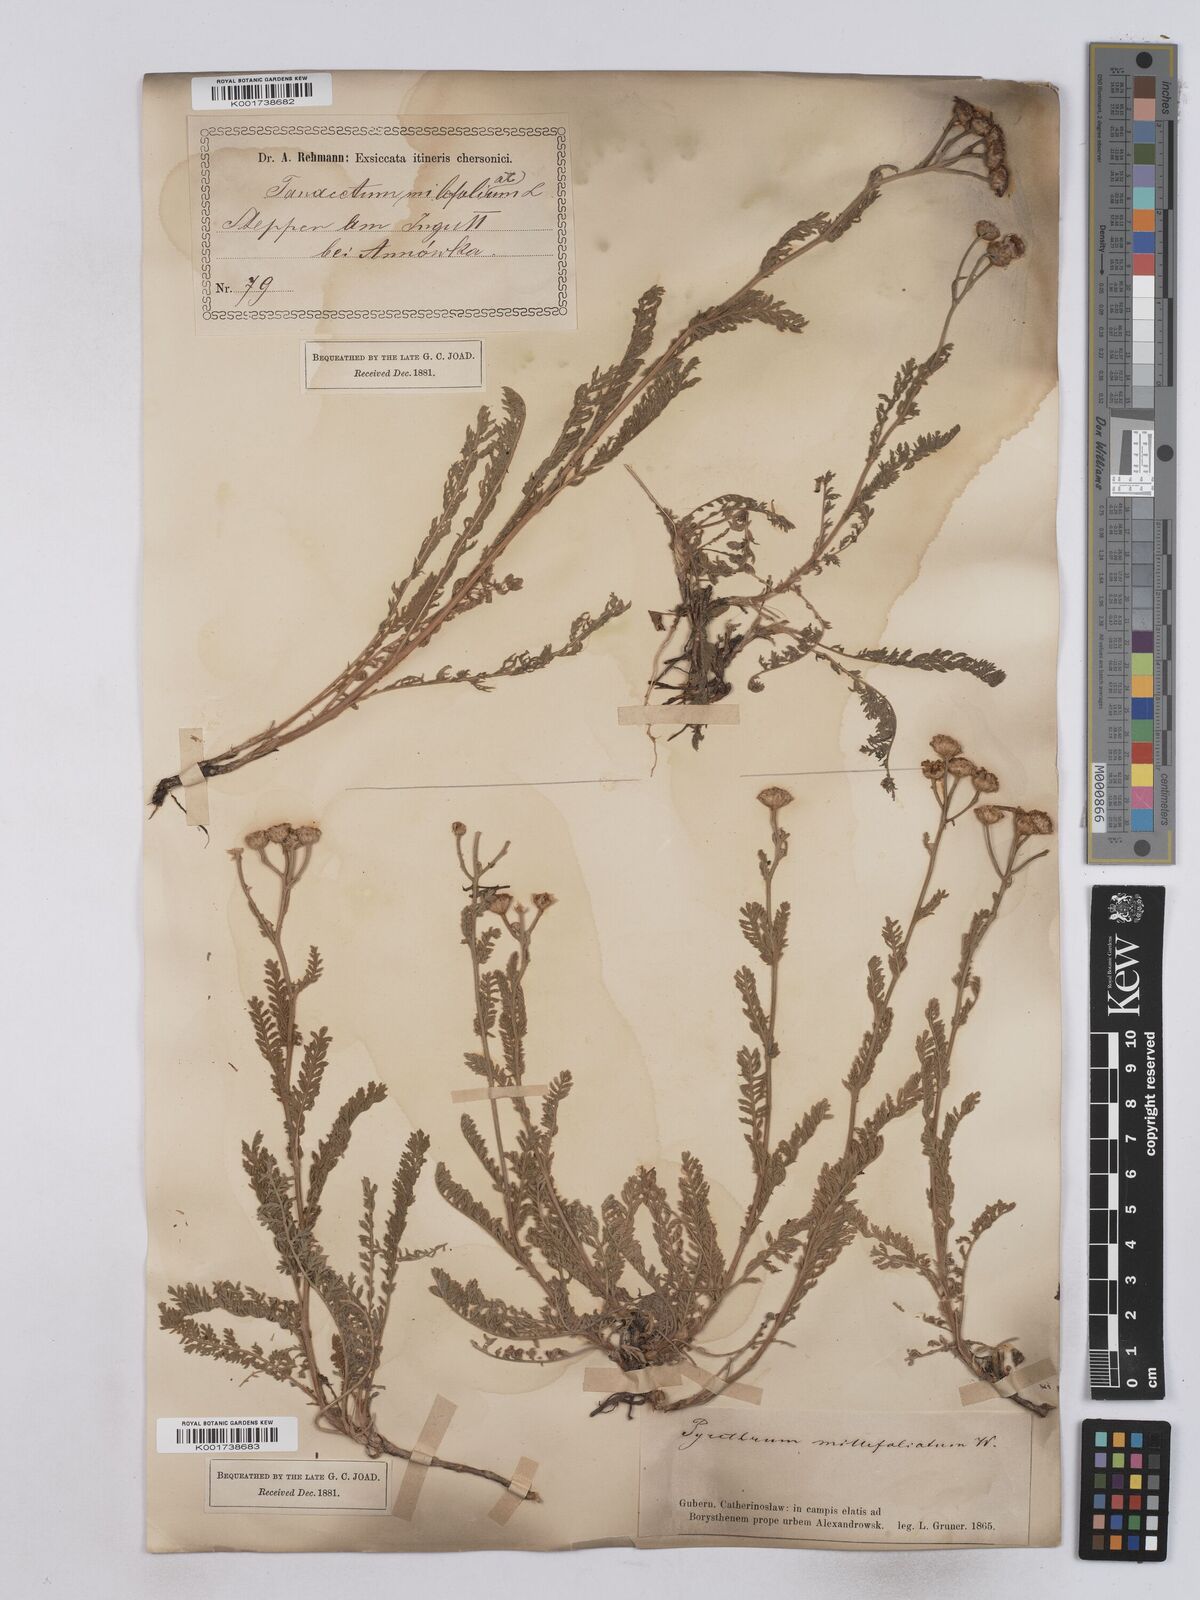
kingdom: Plantae
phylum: Tracheophyta
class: Magnoliopsida
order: Asterales
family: Asteraceae
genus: Tanacetum
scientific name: Tanacetum millefolium
